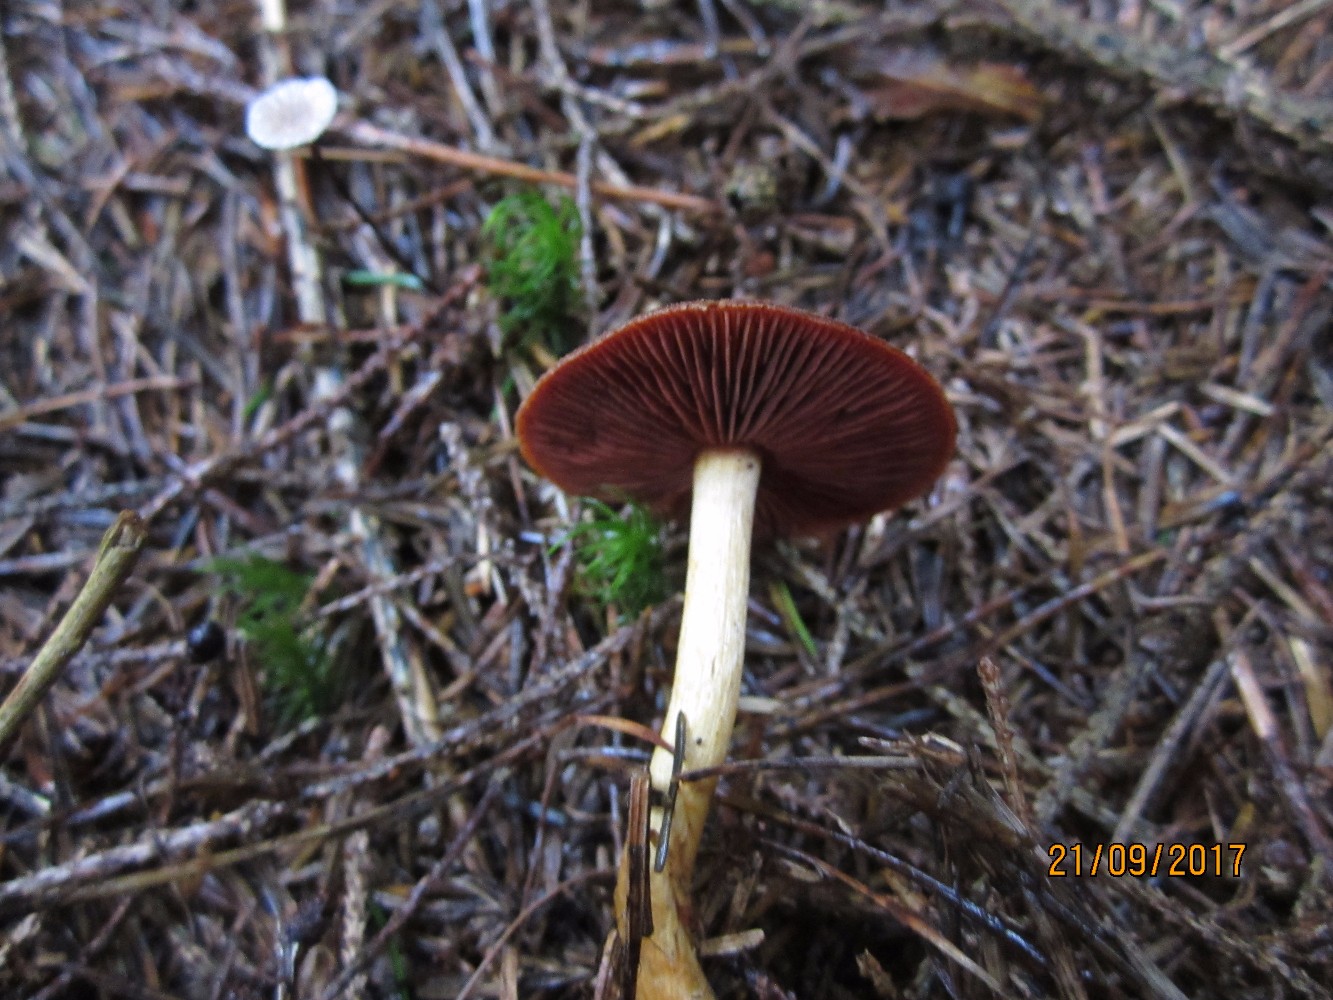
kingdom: Fungi
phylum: Basidiomycota
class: Agaricomycetes
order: Agaricales
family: Cortinariaceae
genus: Cortinarius
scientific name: Cortinarius
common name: cinnoberbladet slørhat
